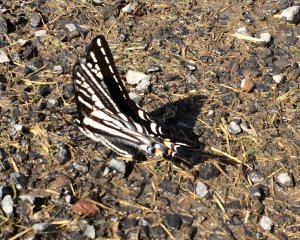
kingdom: Animalia
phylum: Arthropoda
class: Insecta
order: Lepidoptera
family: Papilionidae
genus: Pterourus
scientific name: Pterourus eurymedon
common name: Pale Swallowtail
